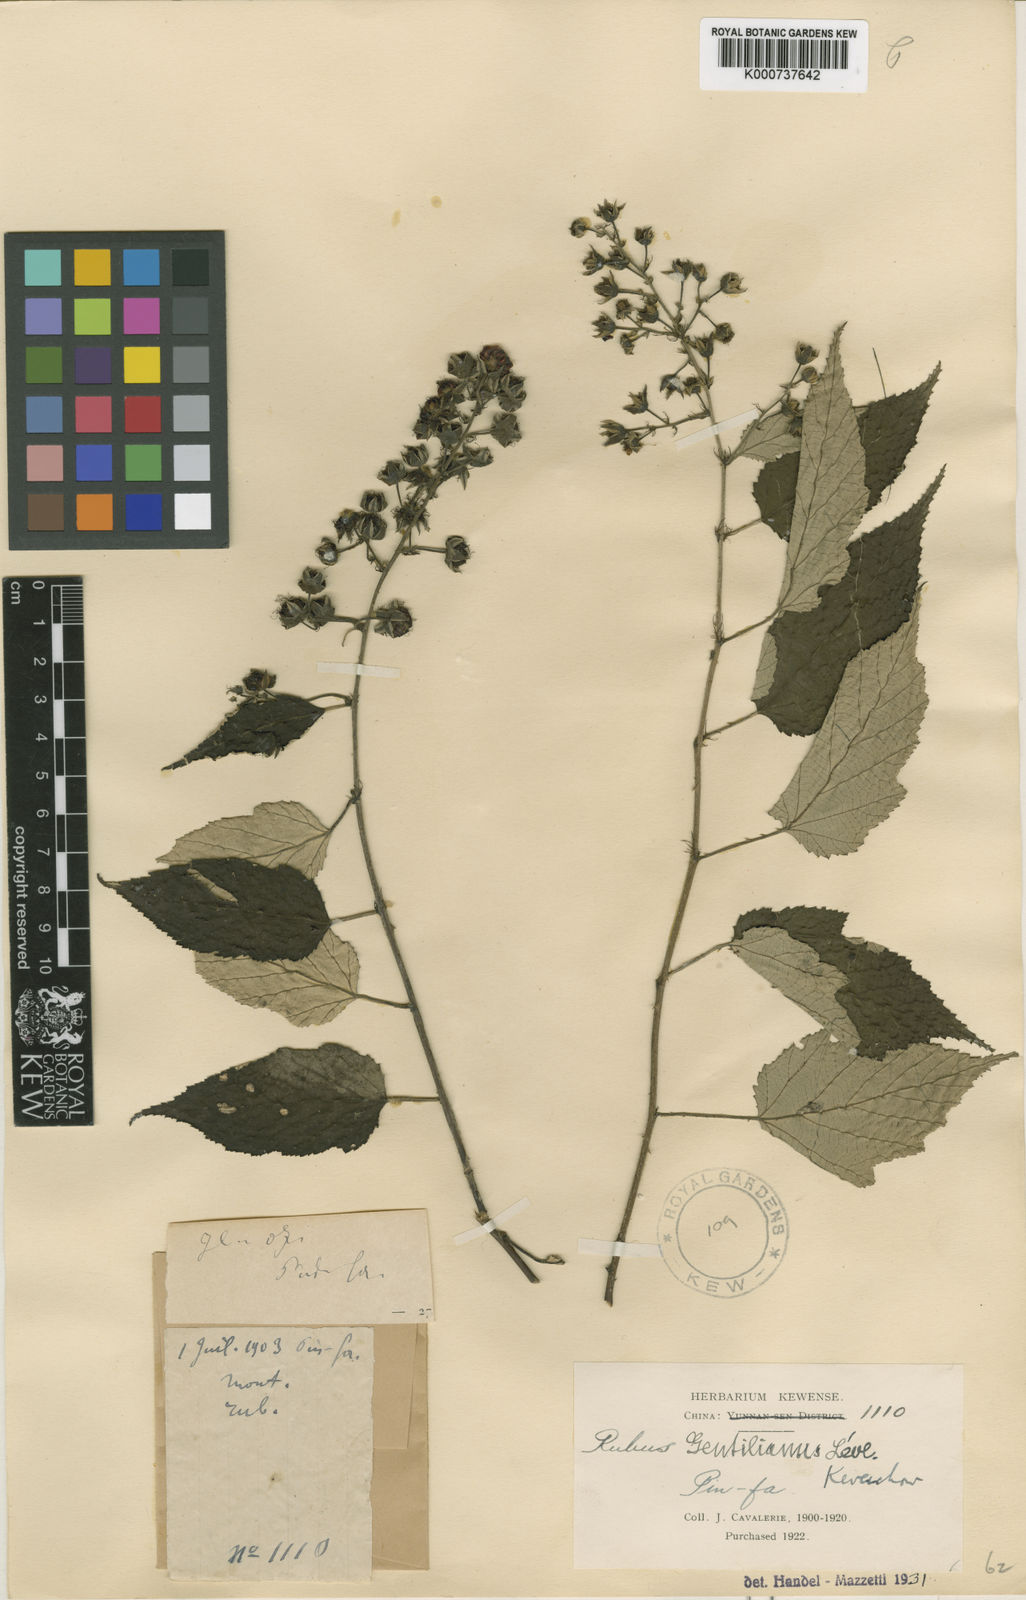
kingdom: Plantae
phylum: Tracheophyta
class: Magnoliopsida
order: Rosales
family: Rosaceae
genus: Rubus
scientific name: Rubus
